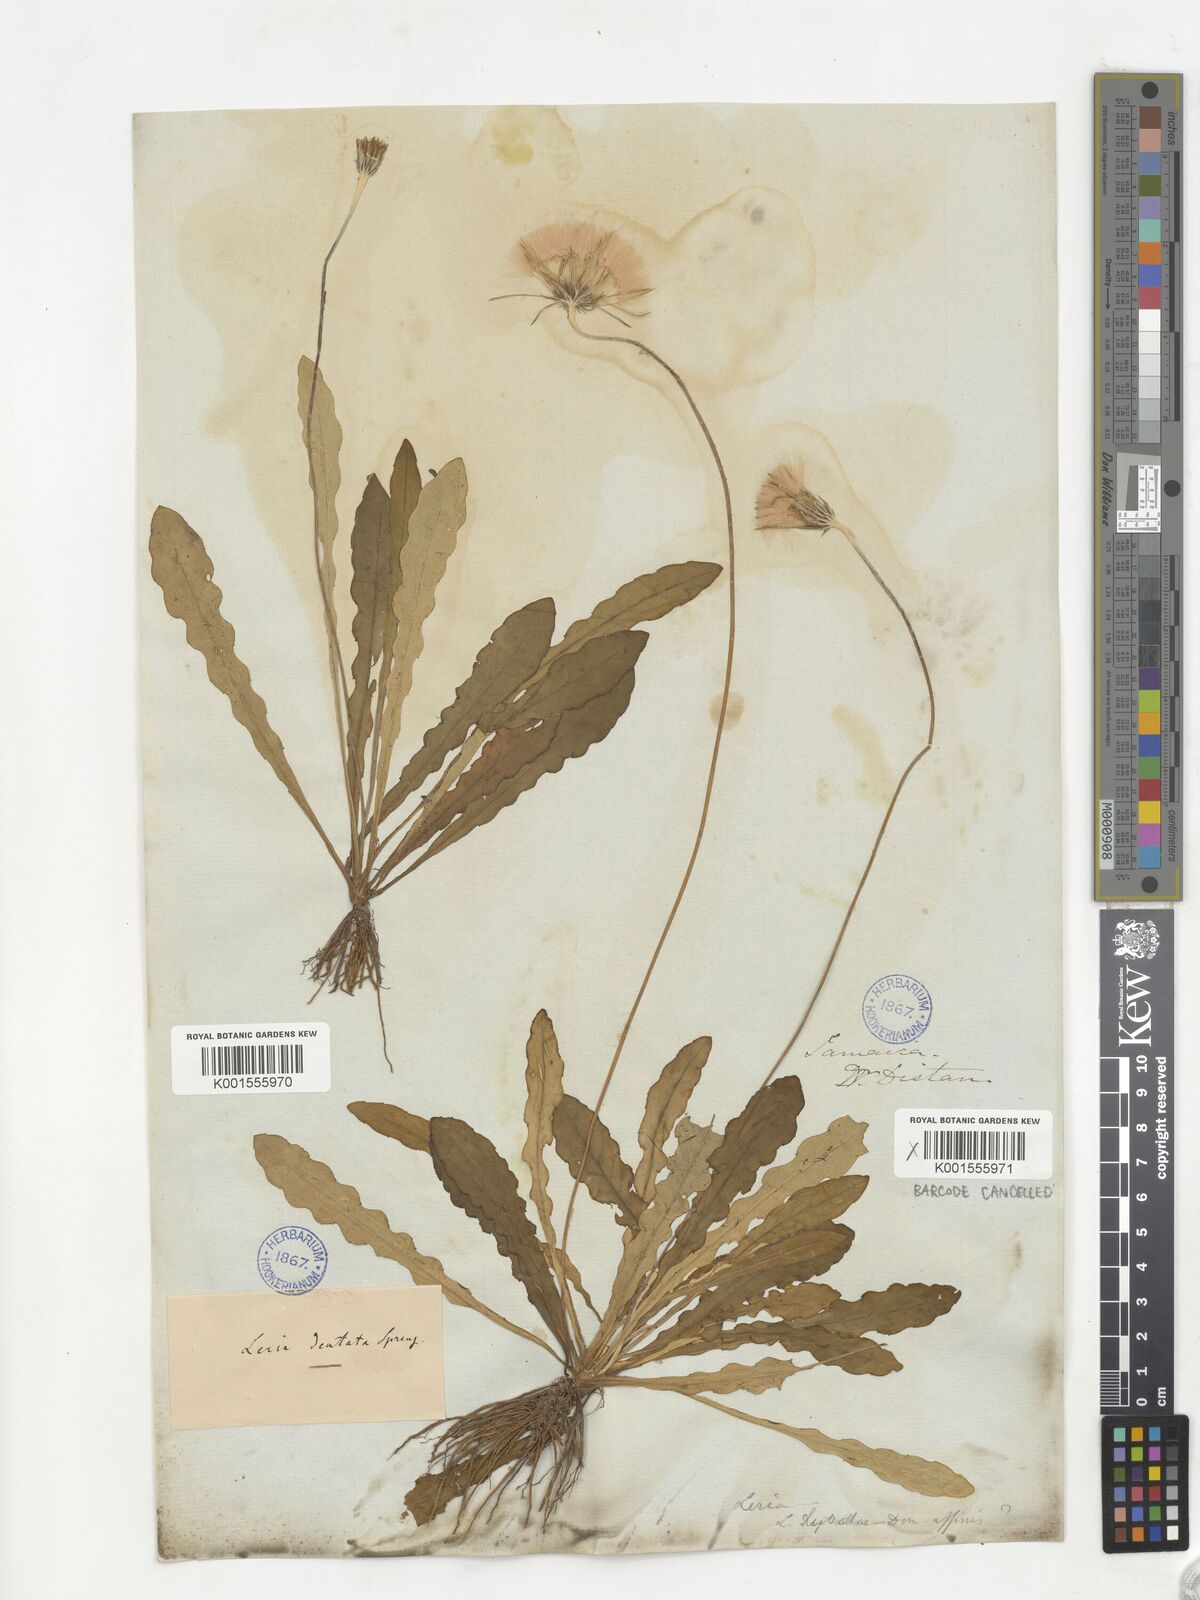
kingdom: Plantae
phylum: Tracheophyta
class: Magnoliopsida
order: Asterales
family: Asteraceae
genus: Chaptalia
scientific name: Chaptalia dentata
